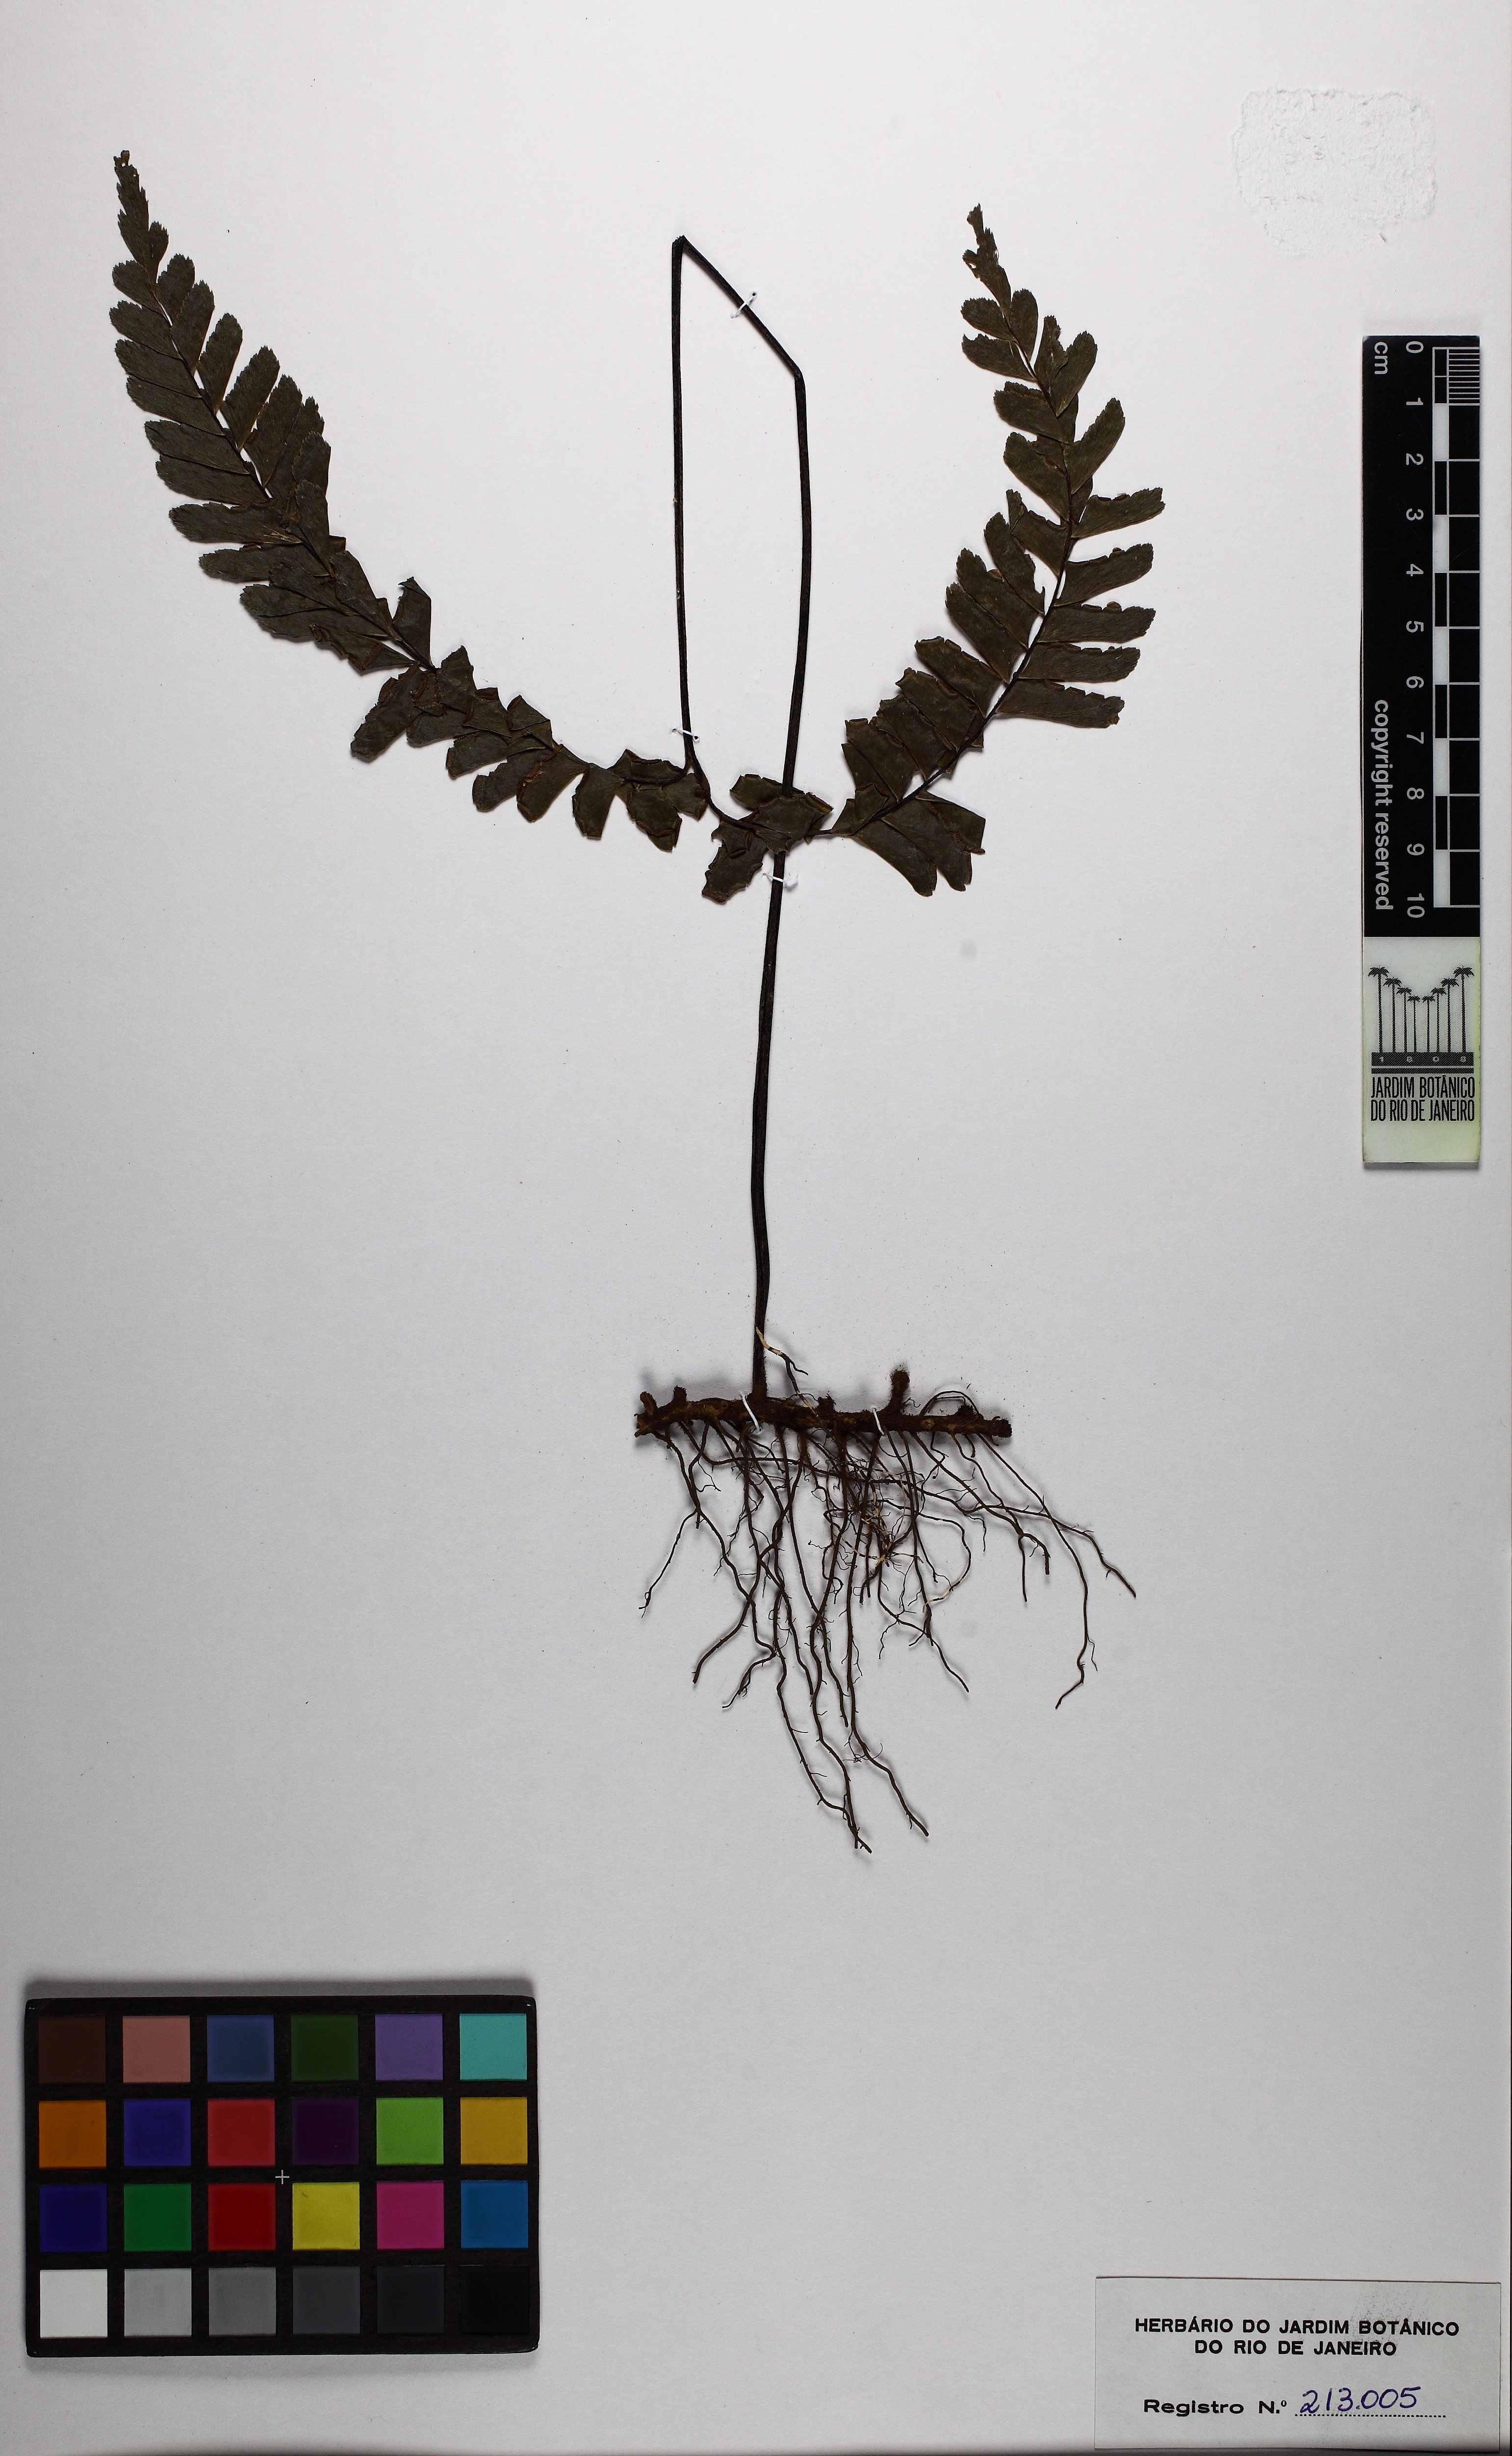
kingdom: Plantae
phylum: Tracheophyta
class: Polypodiopsida
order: Polypodiales
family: Pteridaceae
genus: Adiantum
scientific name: Adiantum tetraphyllum
